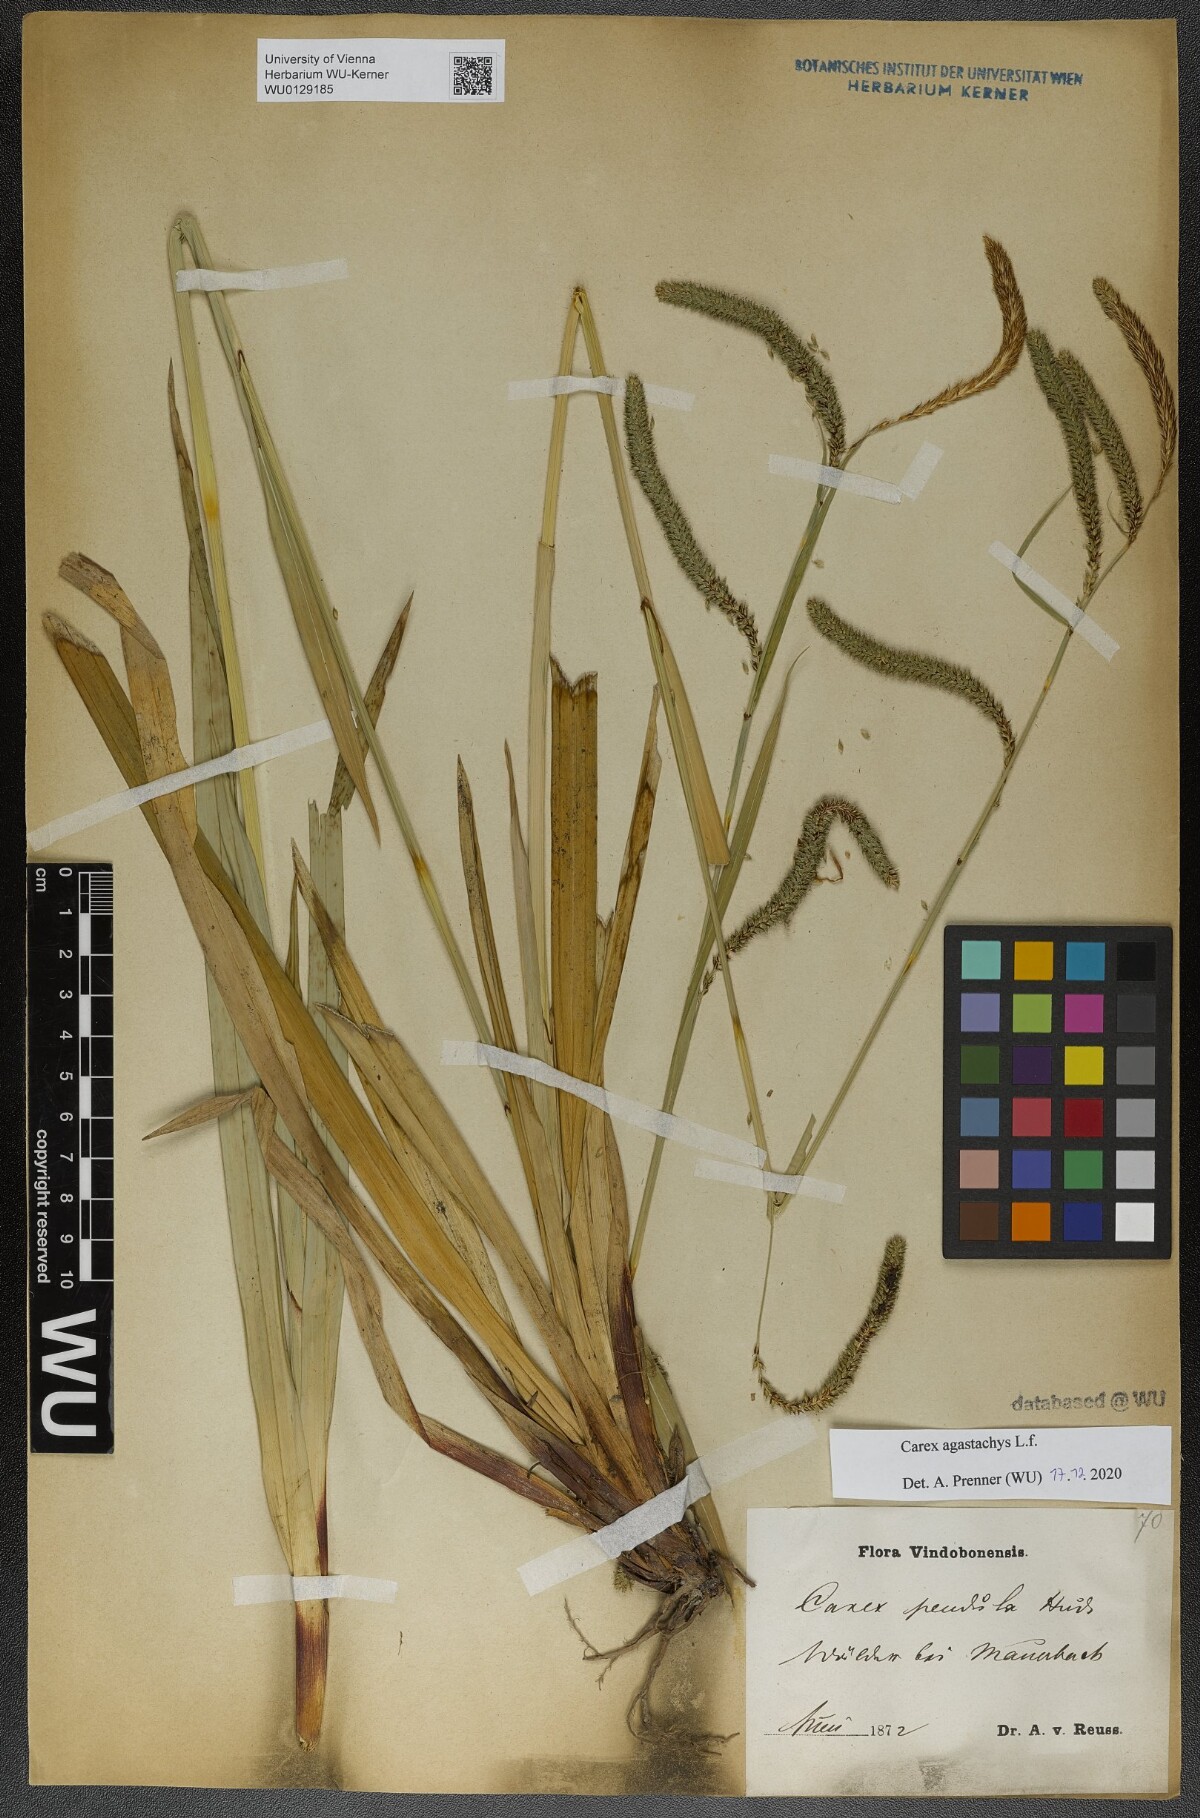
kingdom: Plantae
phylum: Tracheophyta
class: Liliopsida
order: Poales
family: Cyperaceae
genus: Carex
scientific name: Carex agastachys
